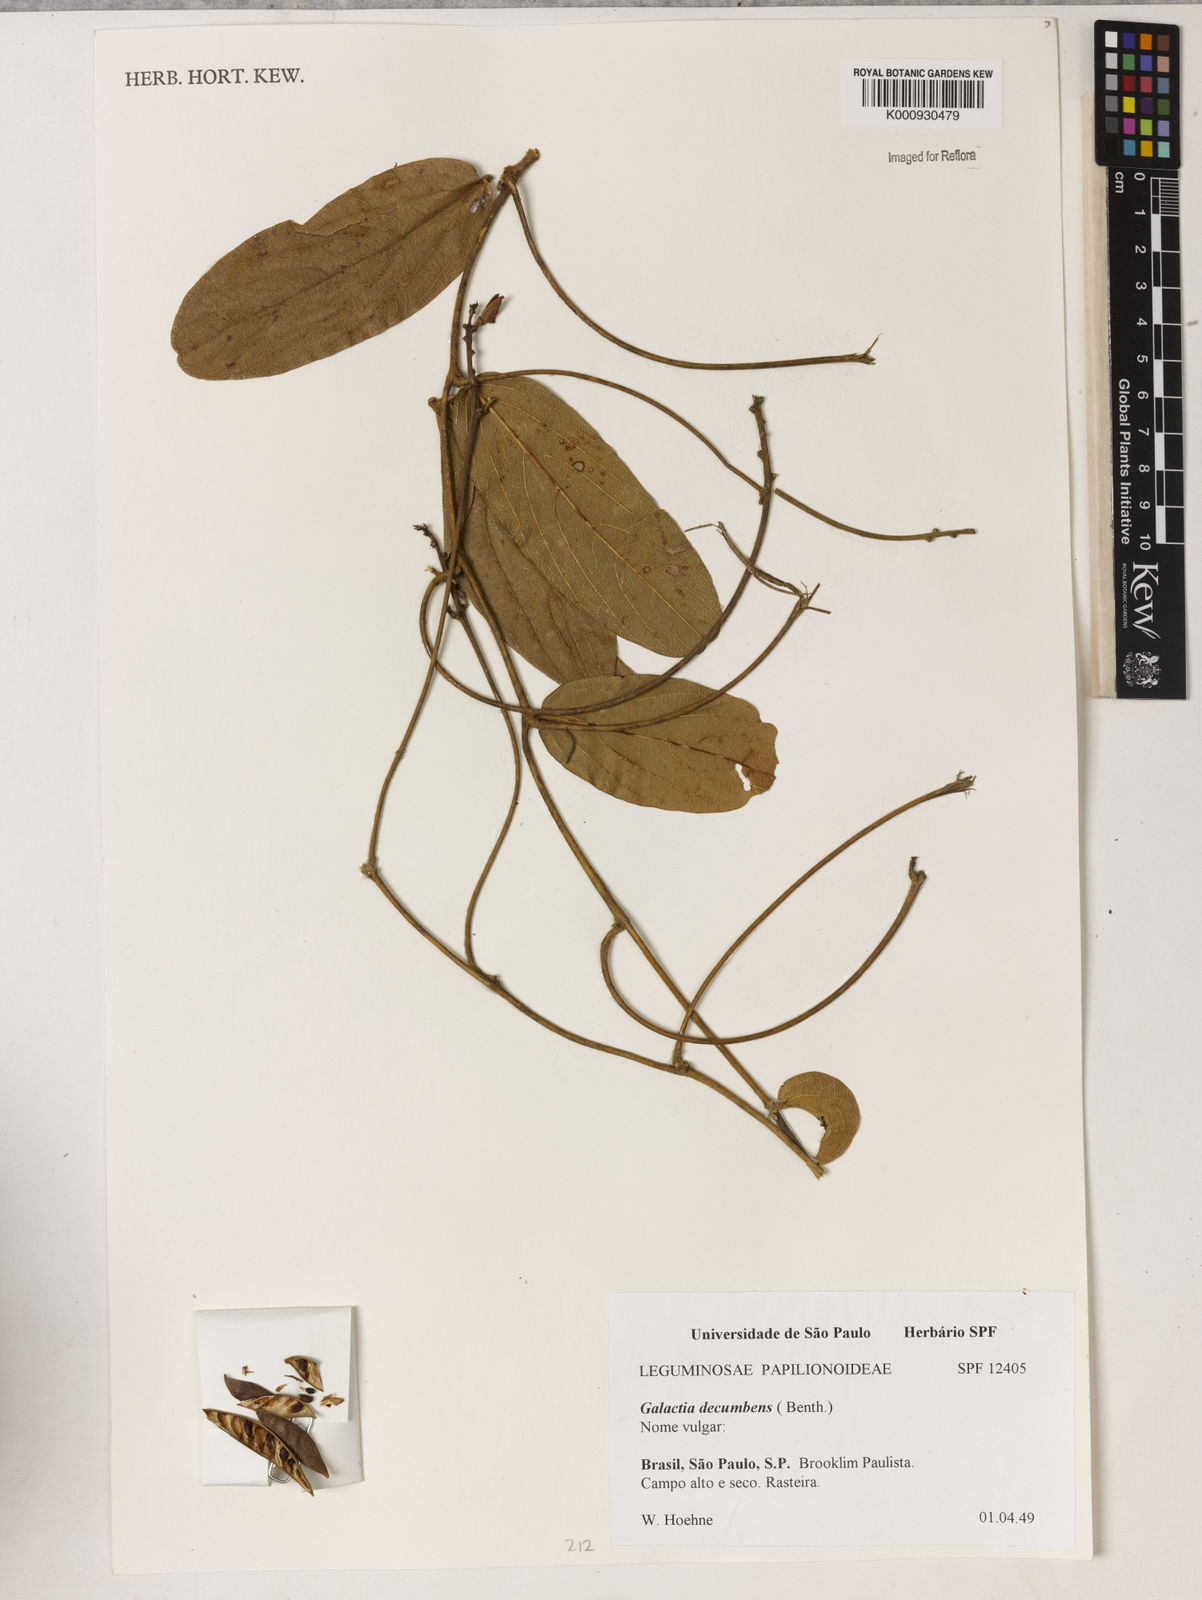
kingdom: Plantae
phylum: Tracheophyta
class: Magnoliopsida
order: Fabales
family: Fabaceae
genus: Cerradicola
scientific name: Cerradicola decumbens
